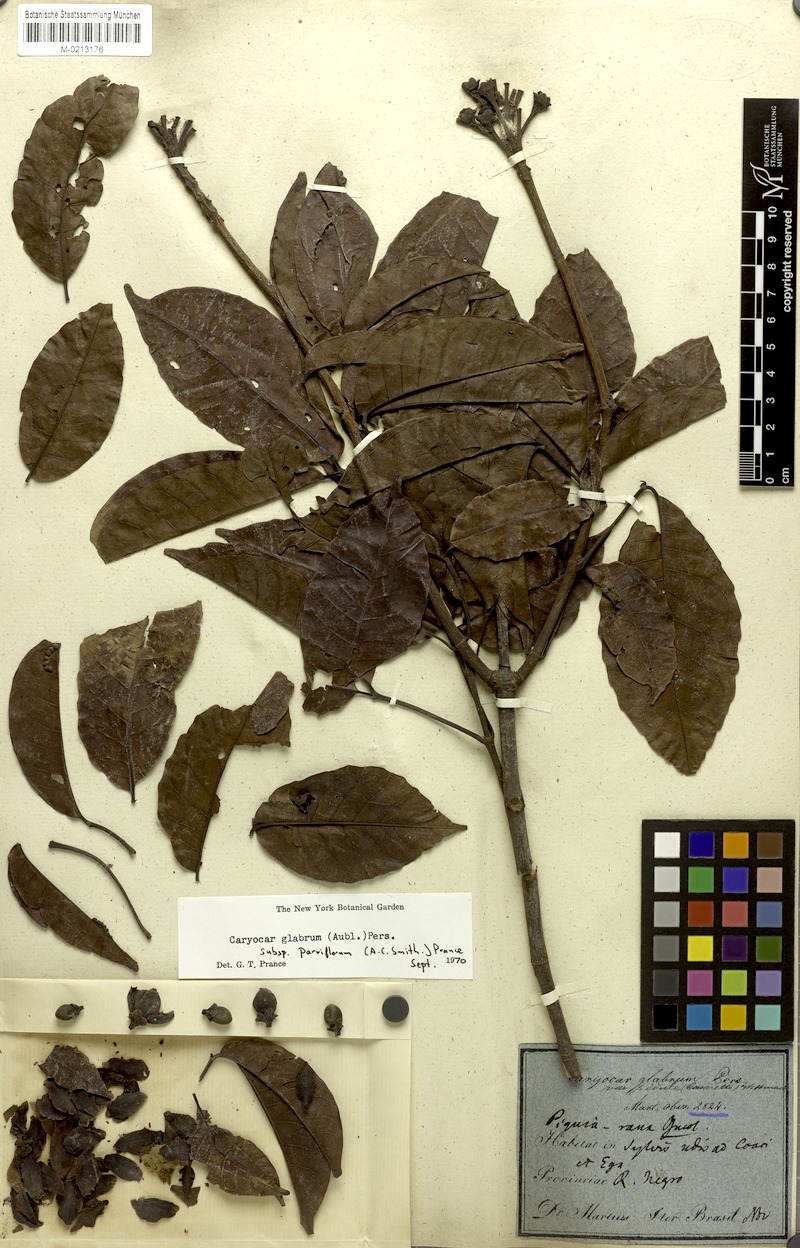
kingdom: Plantae
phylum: Tracheophyta
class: Magnoliopsida
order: Malpighiales
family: Caryocaraceae
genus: Caryocar
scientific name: Caryocar glabrum
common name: Bat's souari
